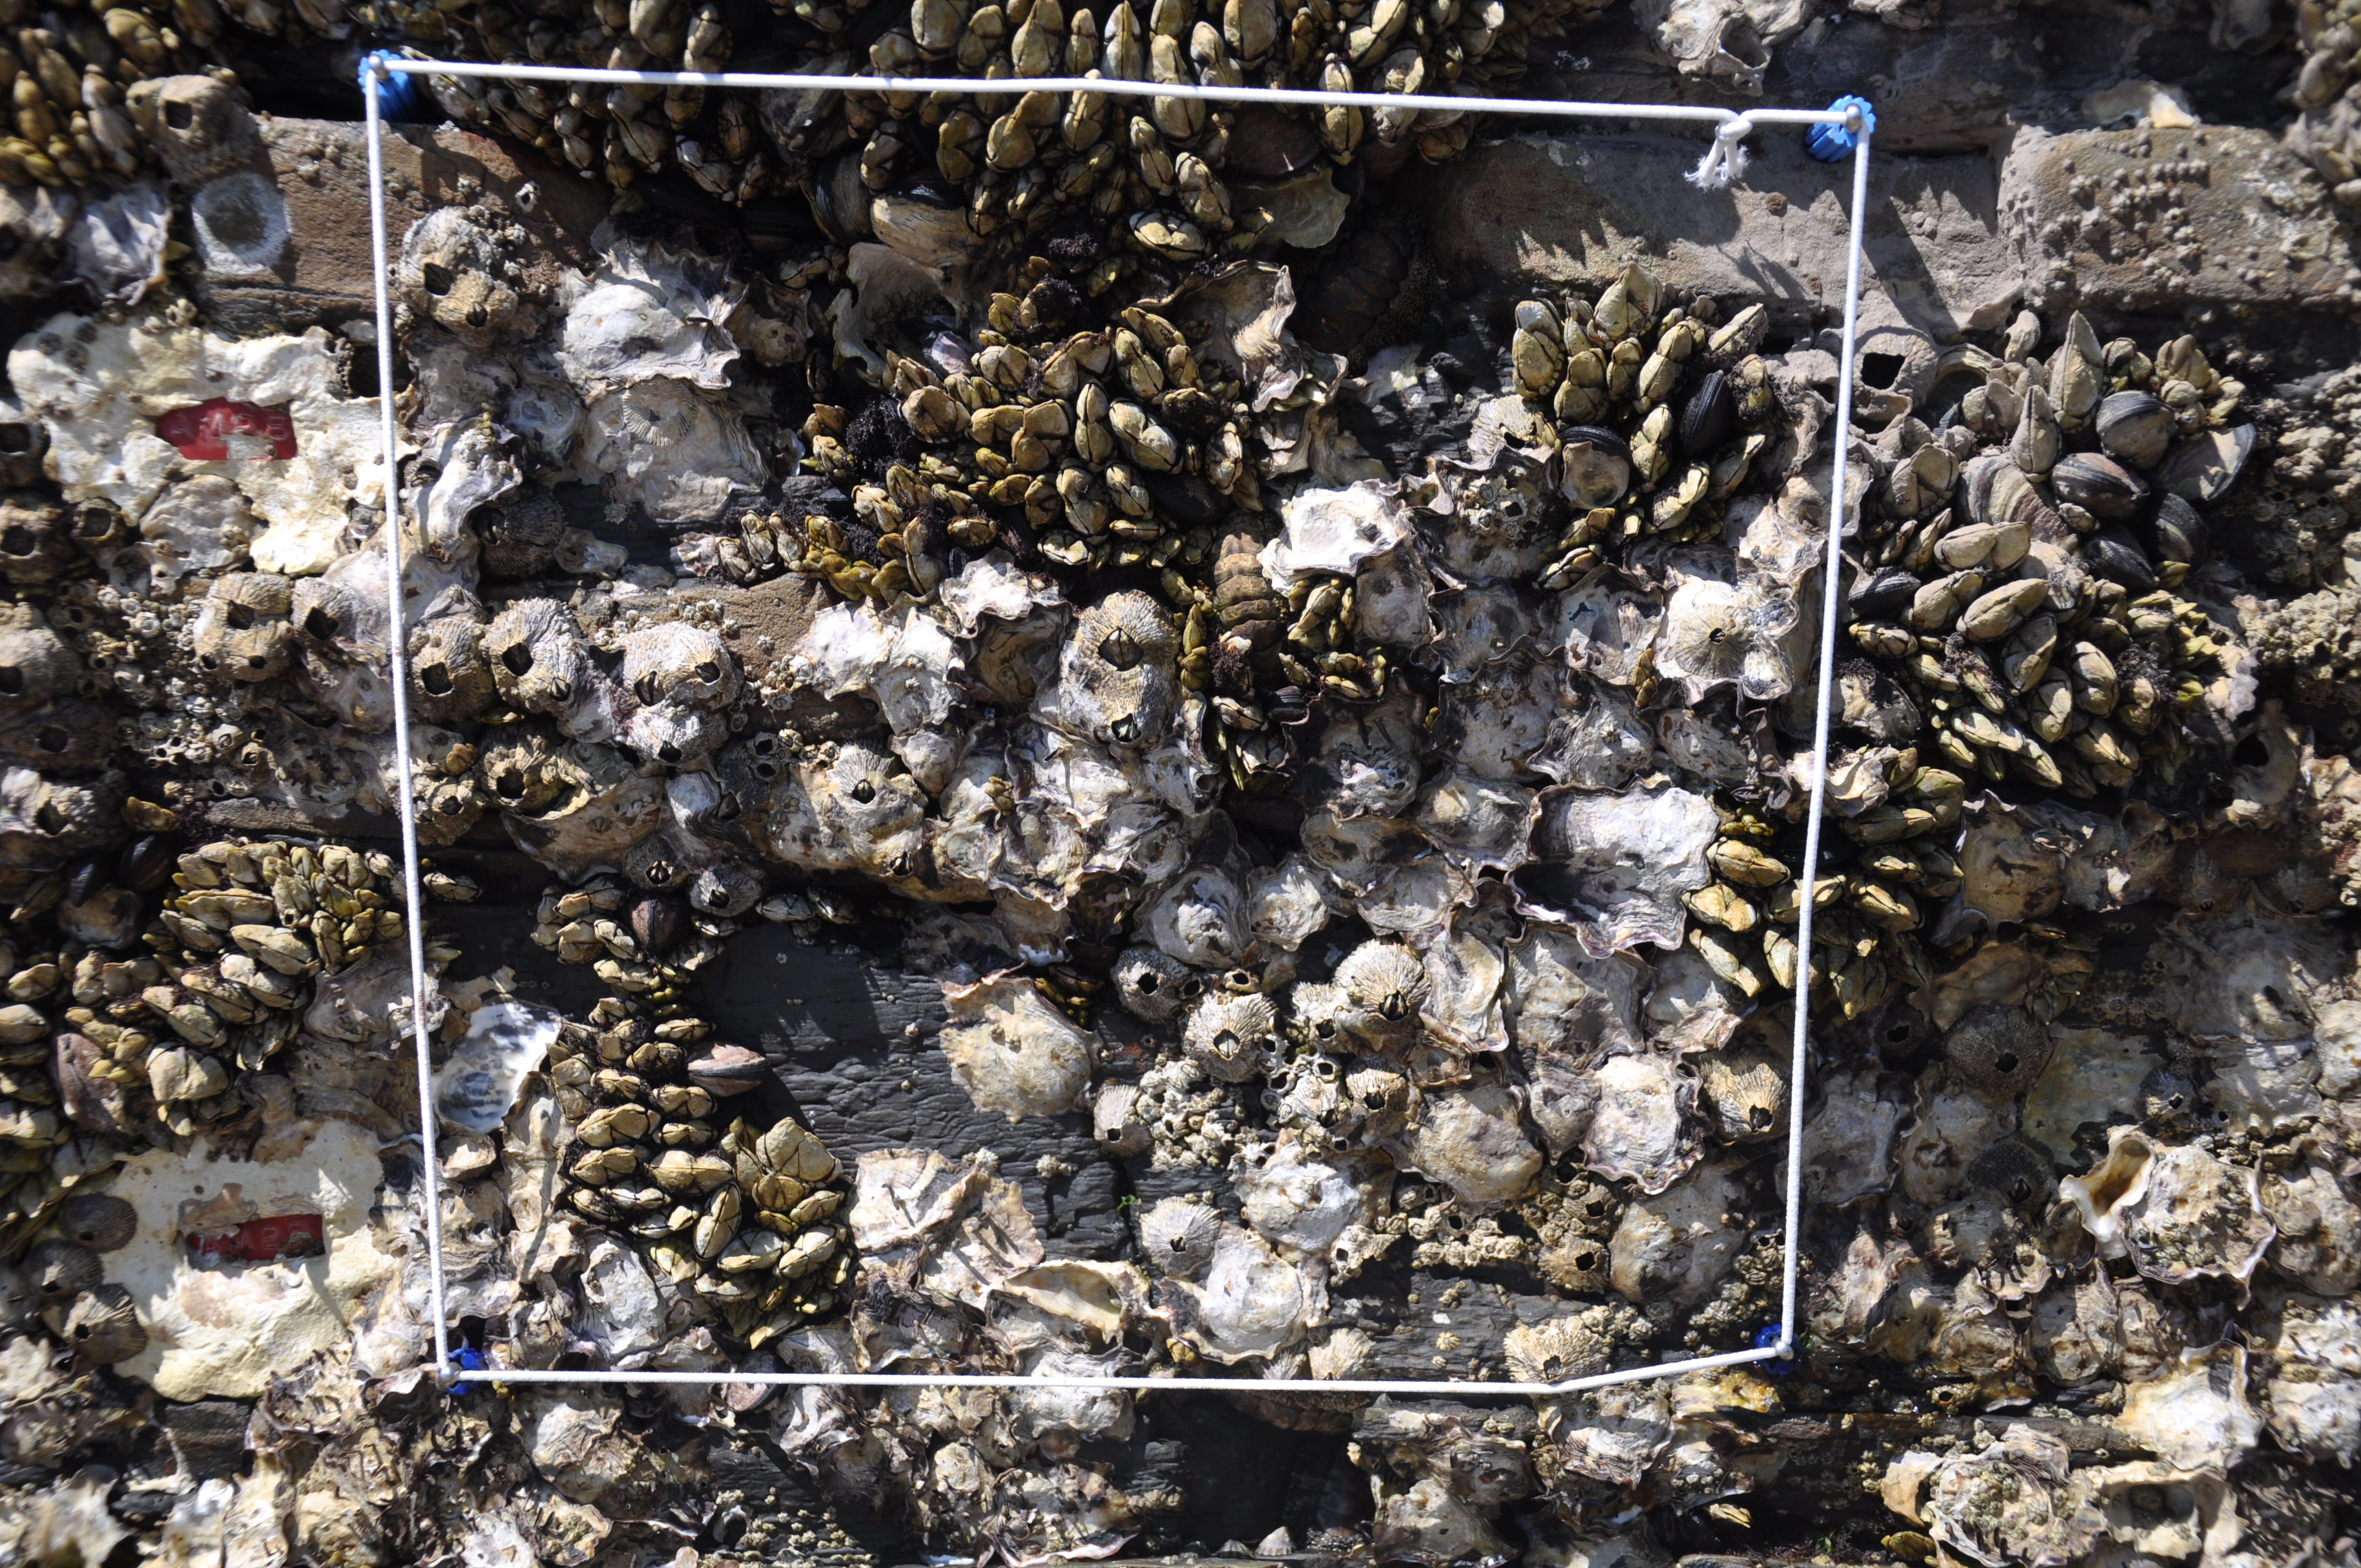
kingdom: Animalia
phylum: Arthropoda
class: Maxillopoda
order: Sessilia
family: Chthamalidae
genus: Chthamalus
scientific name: Chthamalus challengeri
